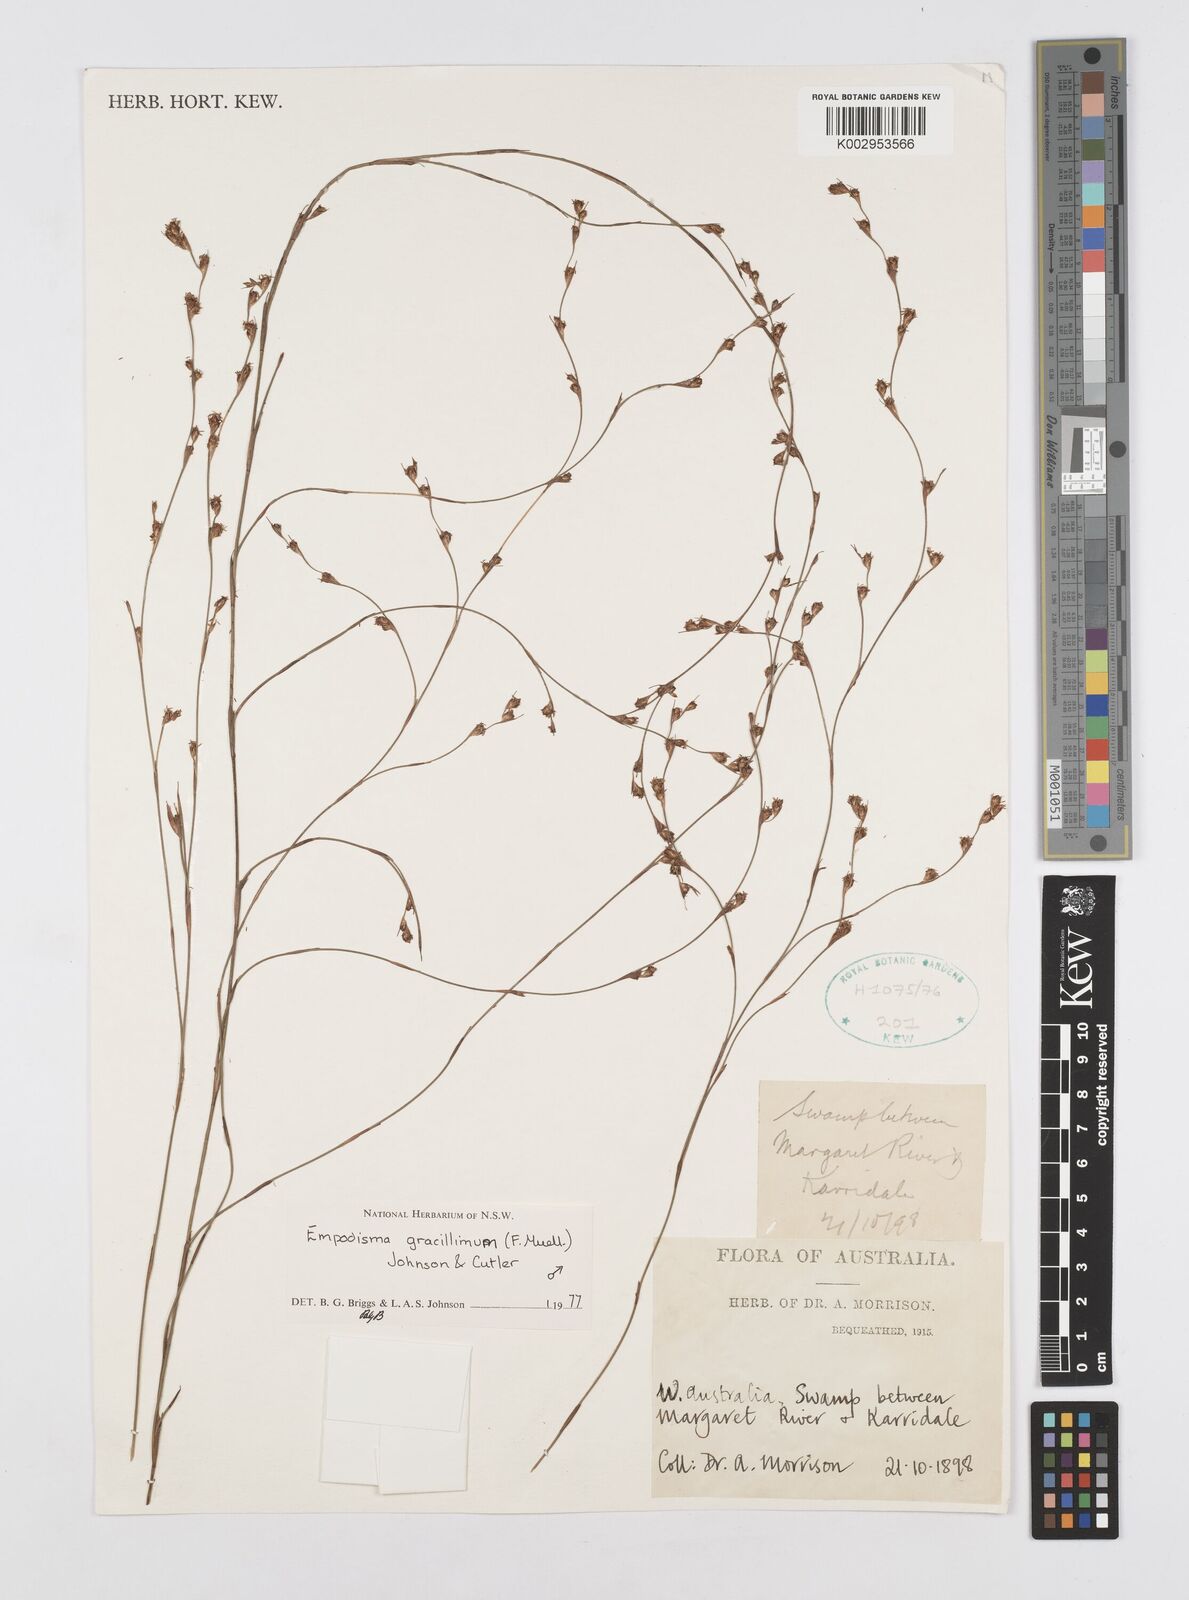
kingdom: Plantae
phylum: Tracheophyta
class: Liliopsida
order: Poales
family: Restionaceae
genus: Empodisma
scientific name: Empodisma gracillimum
